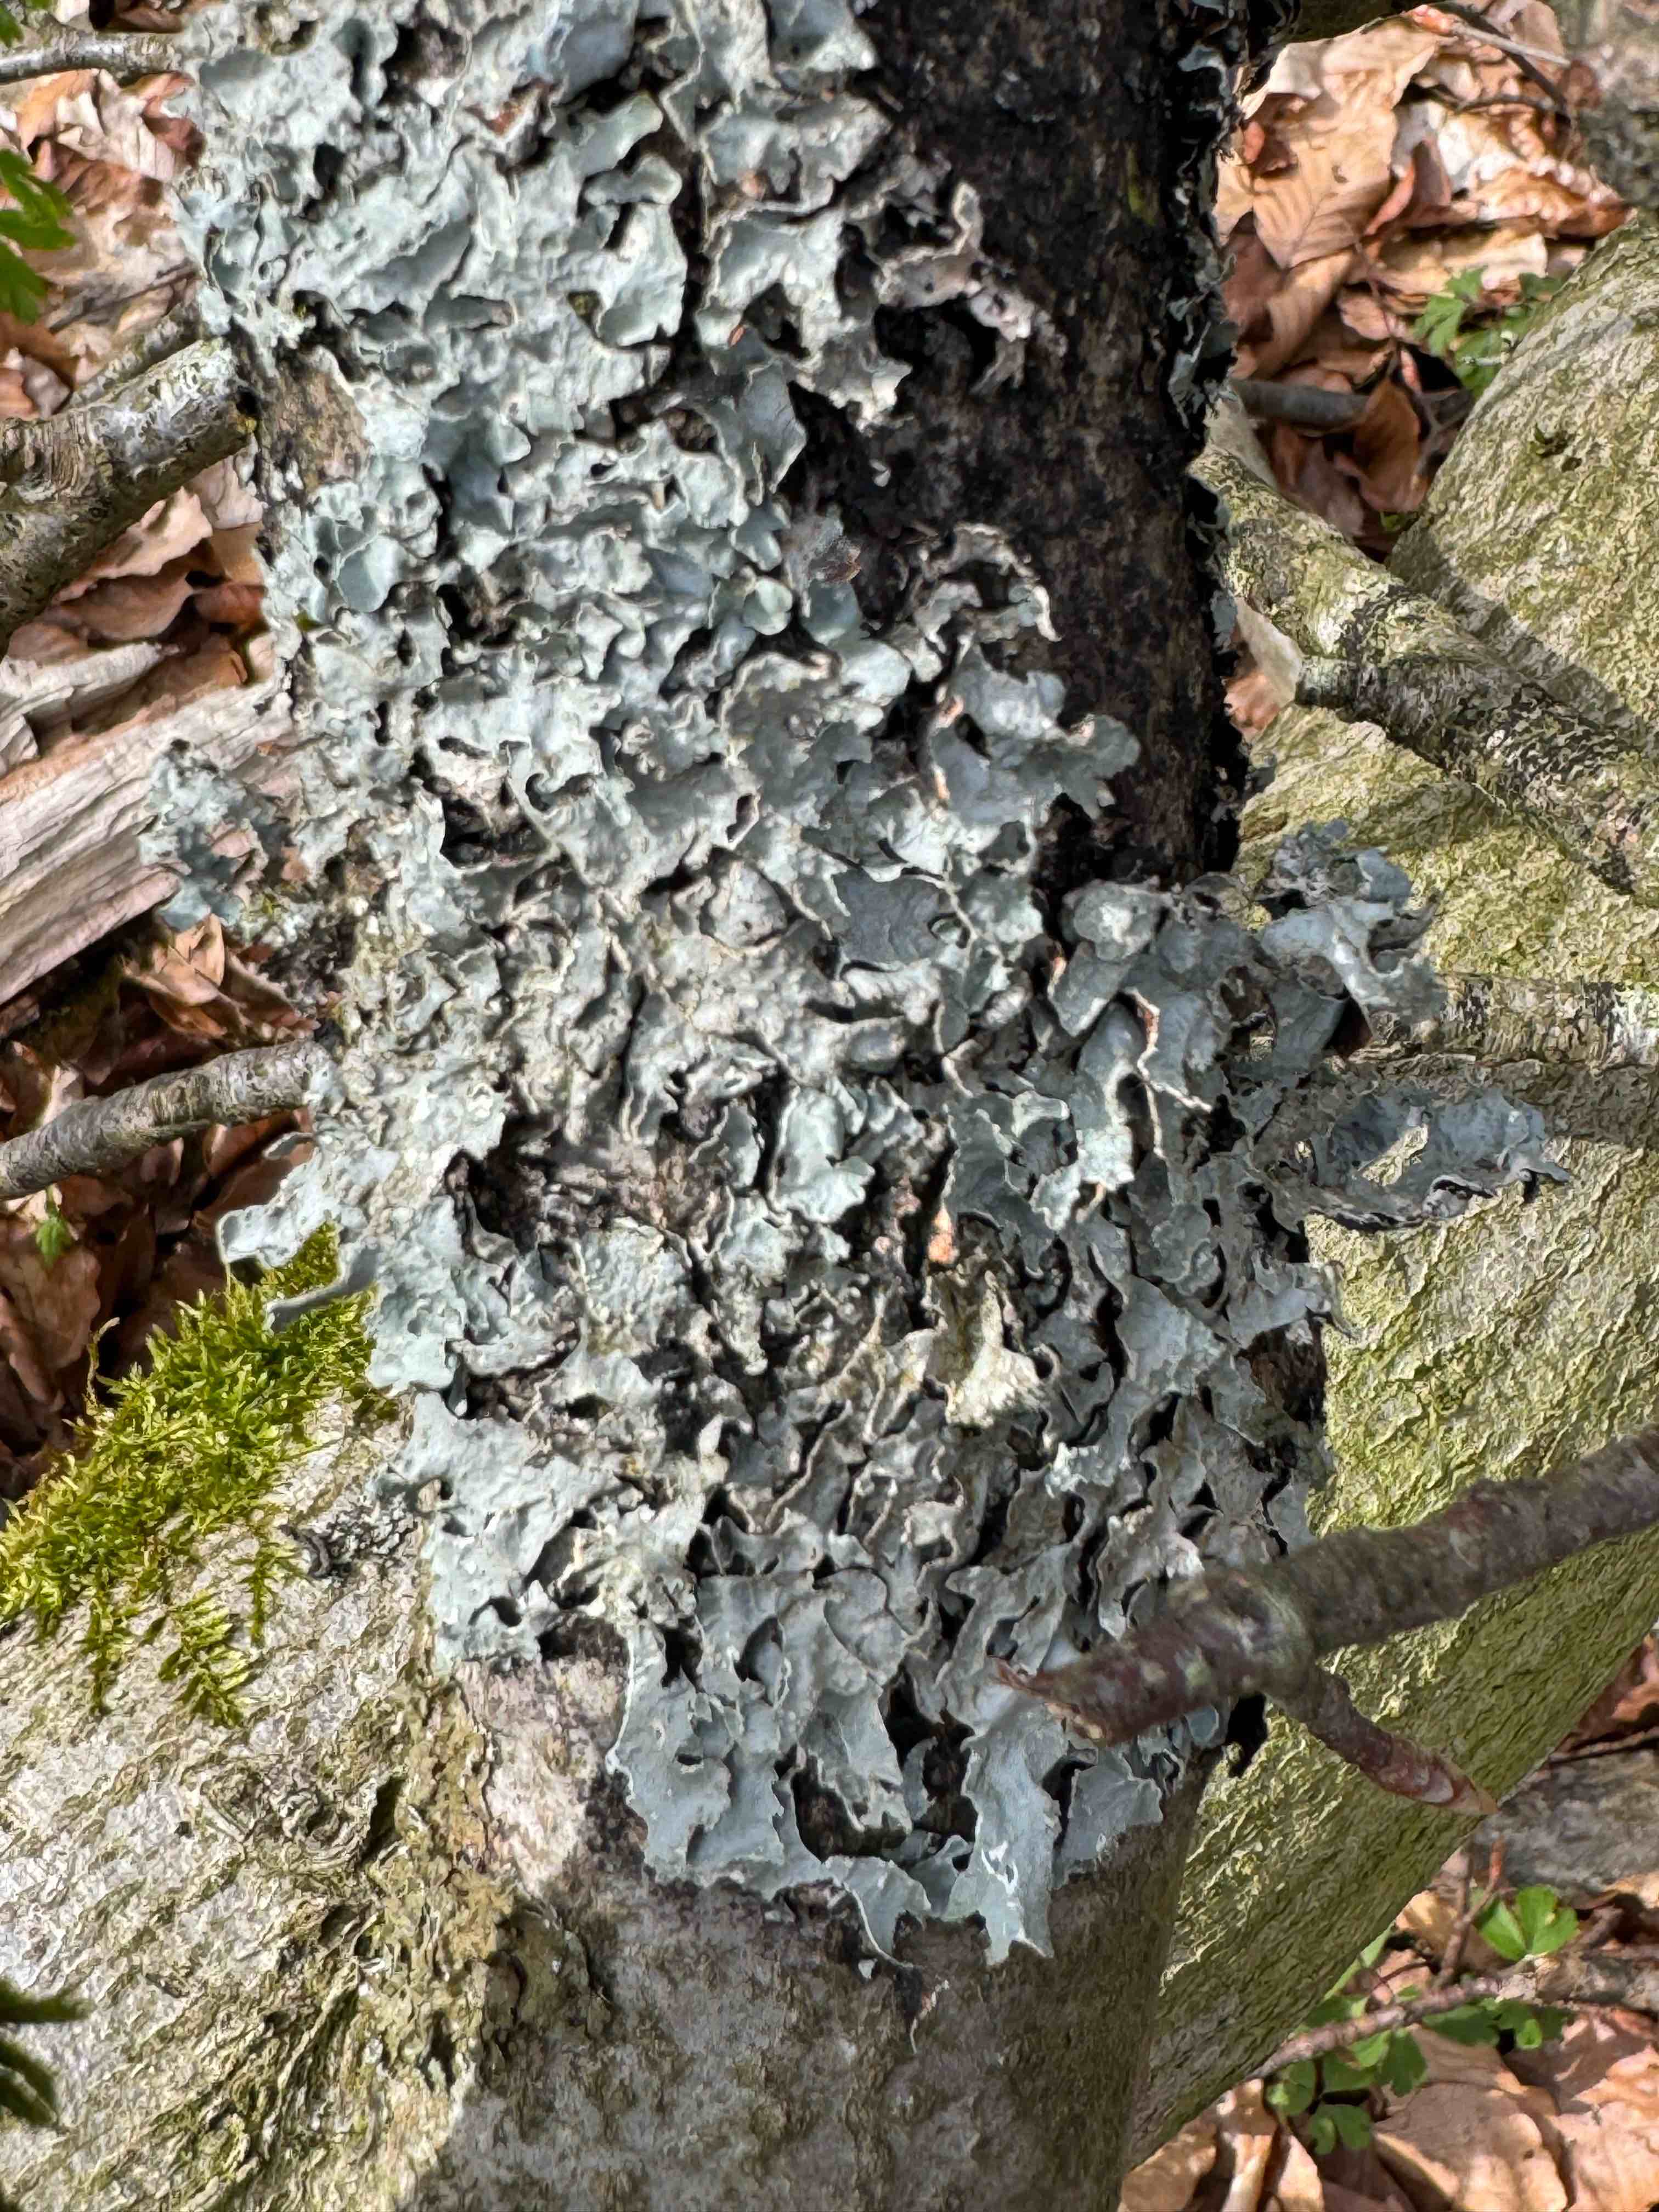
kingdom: Fungi
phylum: Ascomycota
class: Lecanoromycetes
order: Lecanorales
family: Parmeliaceae
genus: Parmelia
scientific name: Parmelia sulcata
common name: rynket skållav
